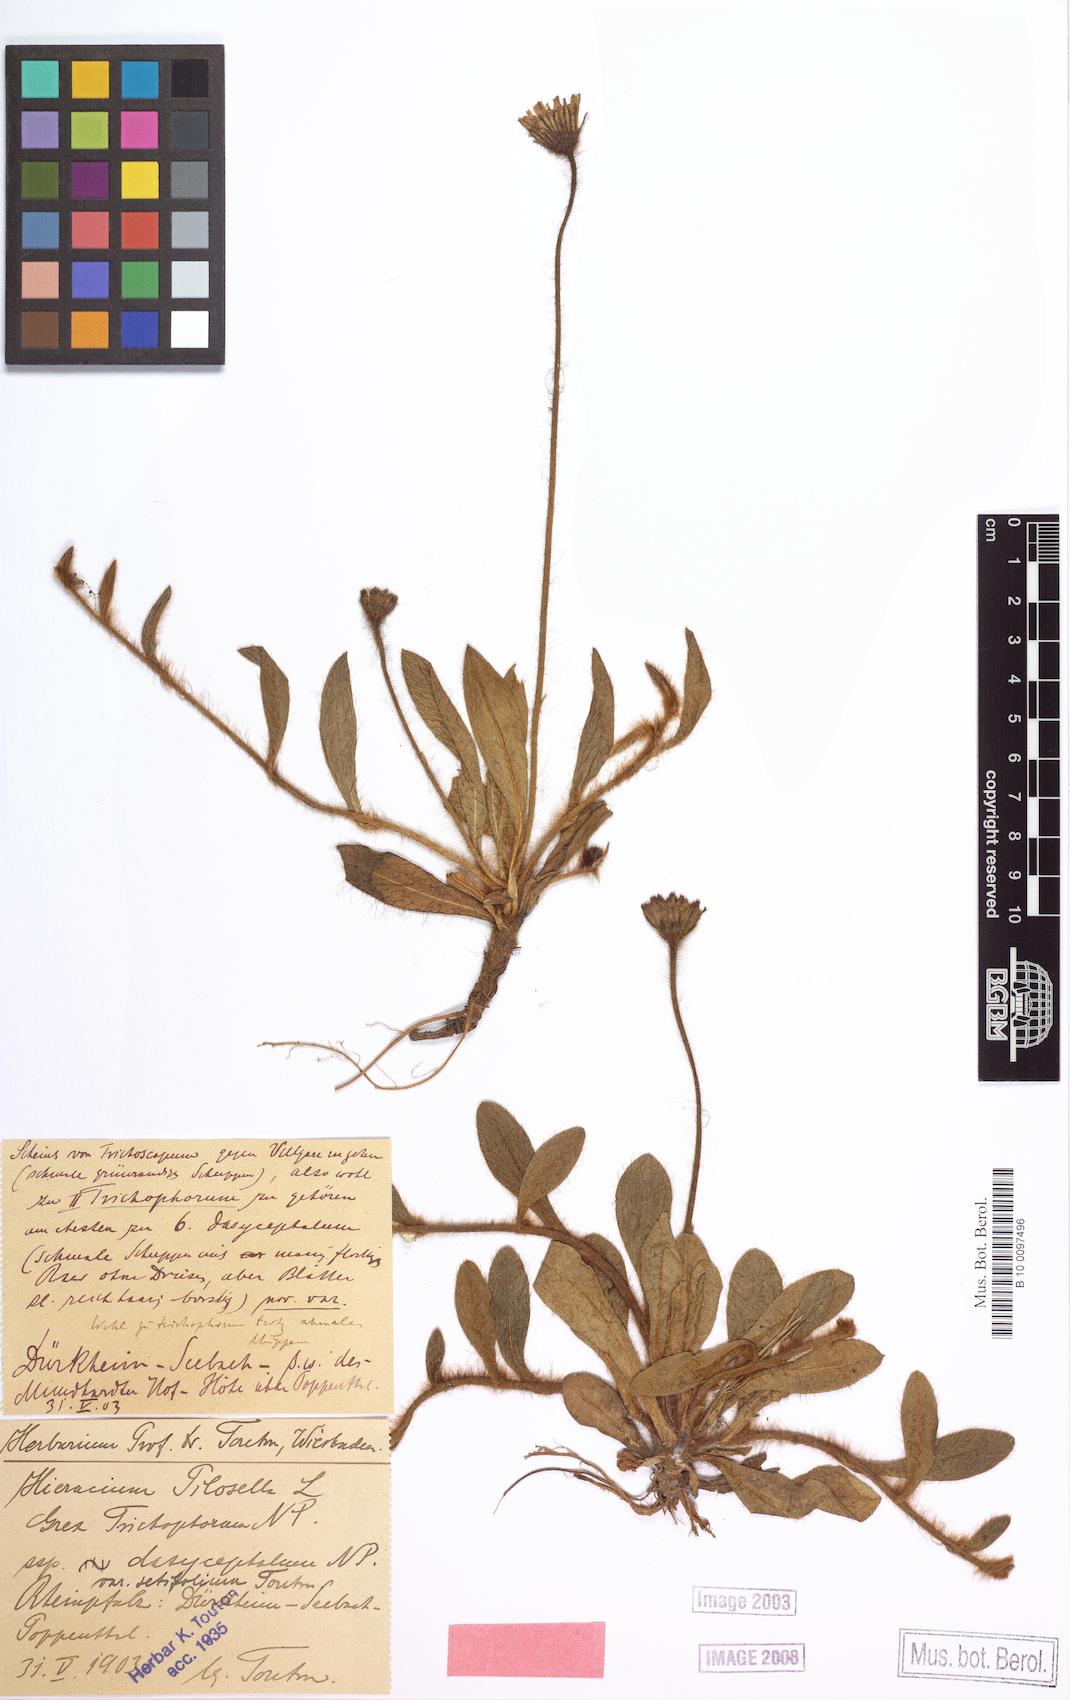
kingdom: Plantae
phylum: Tracheophyta
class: Magnoliopsida
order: Asterales
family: Asteraceae
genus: Pilosella
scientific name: Pilosella officinarum
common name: Mouse-ear hawkweed
